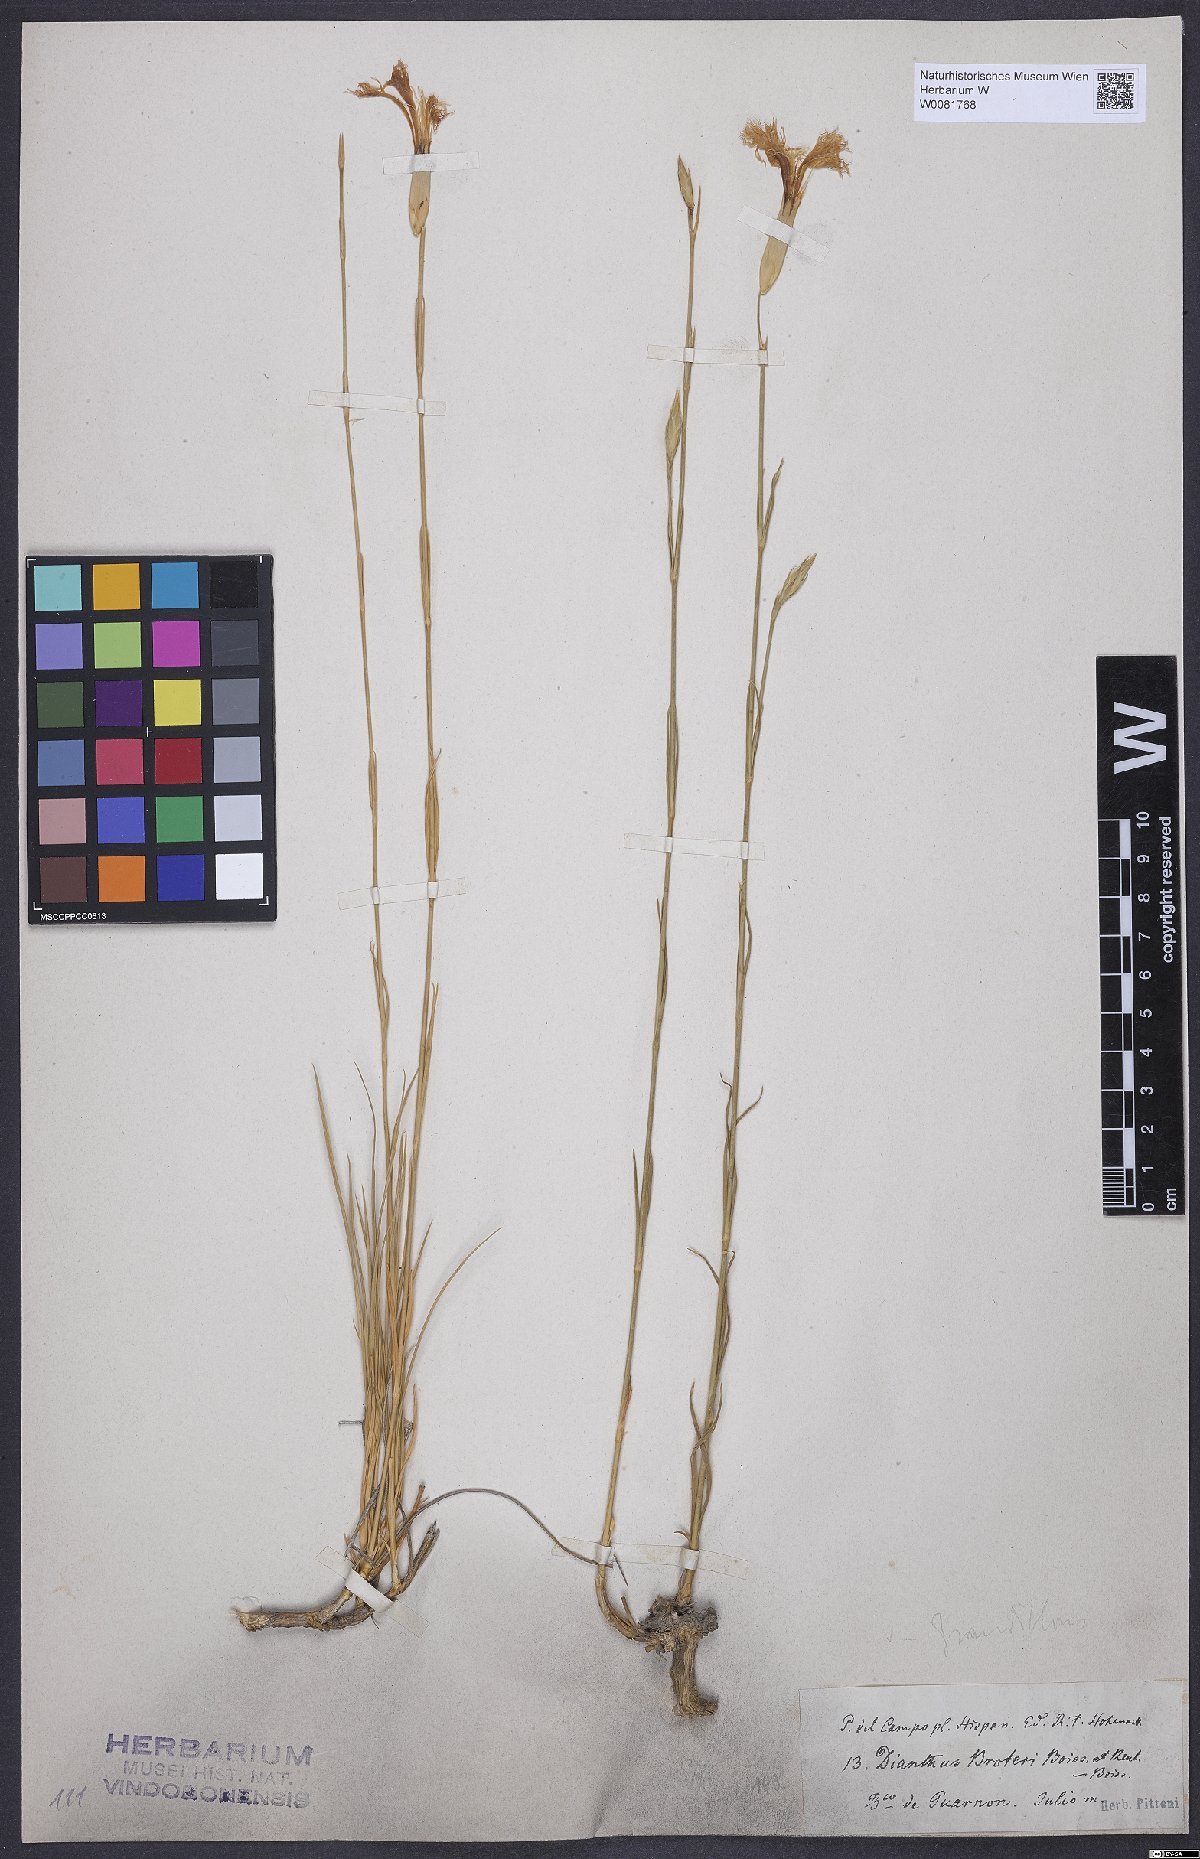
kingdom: Plantae
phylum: Tracheophyta
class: Magnoliopsida
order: Caryophyllales
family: Caryophyllaceae
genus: Dianthus
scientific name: Dianthus broteri
